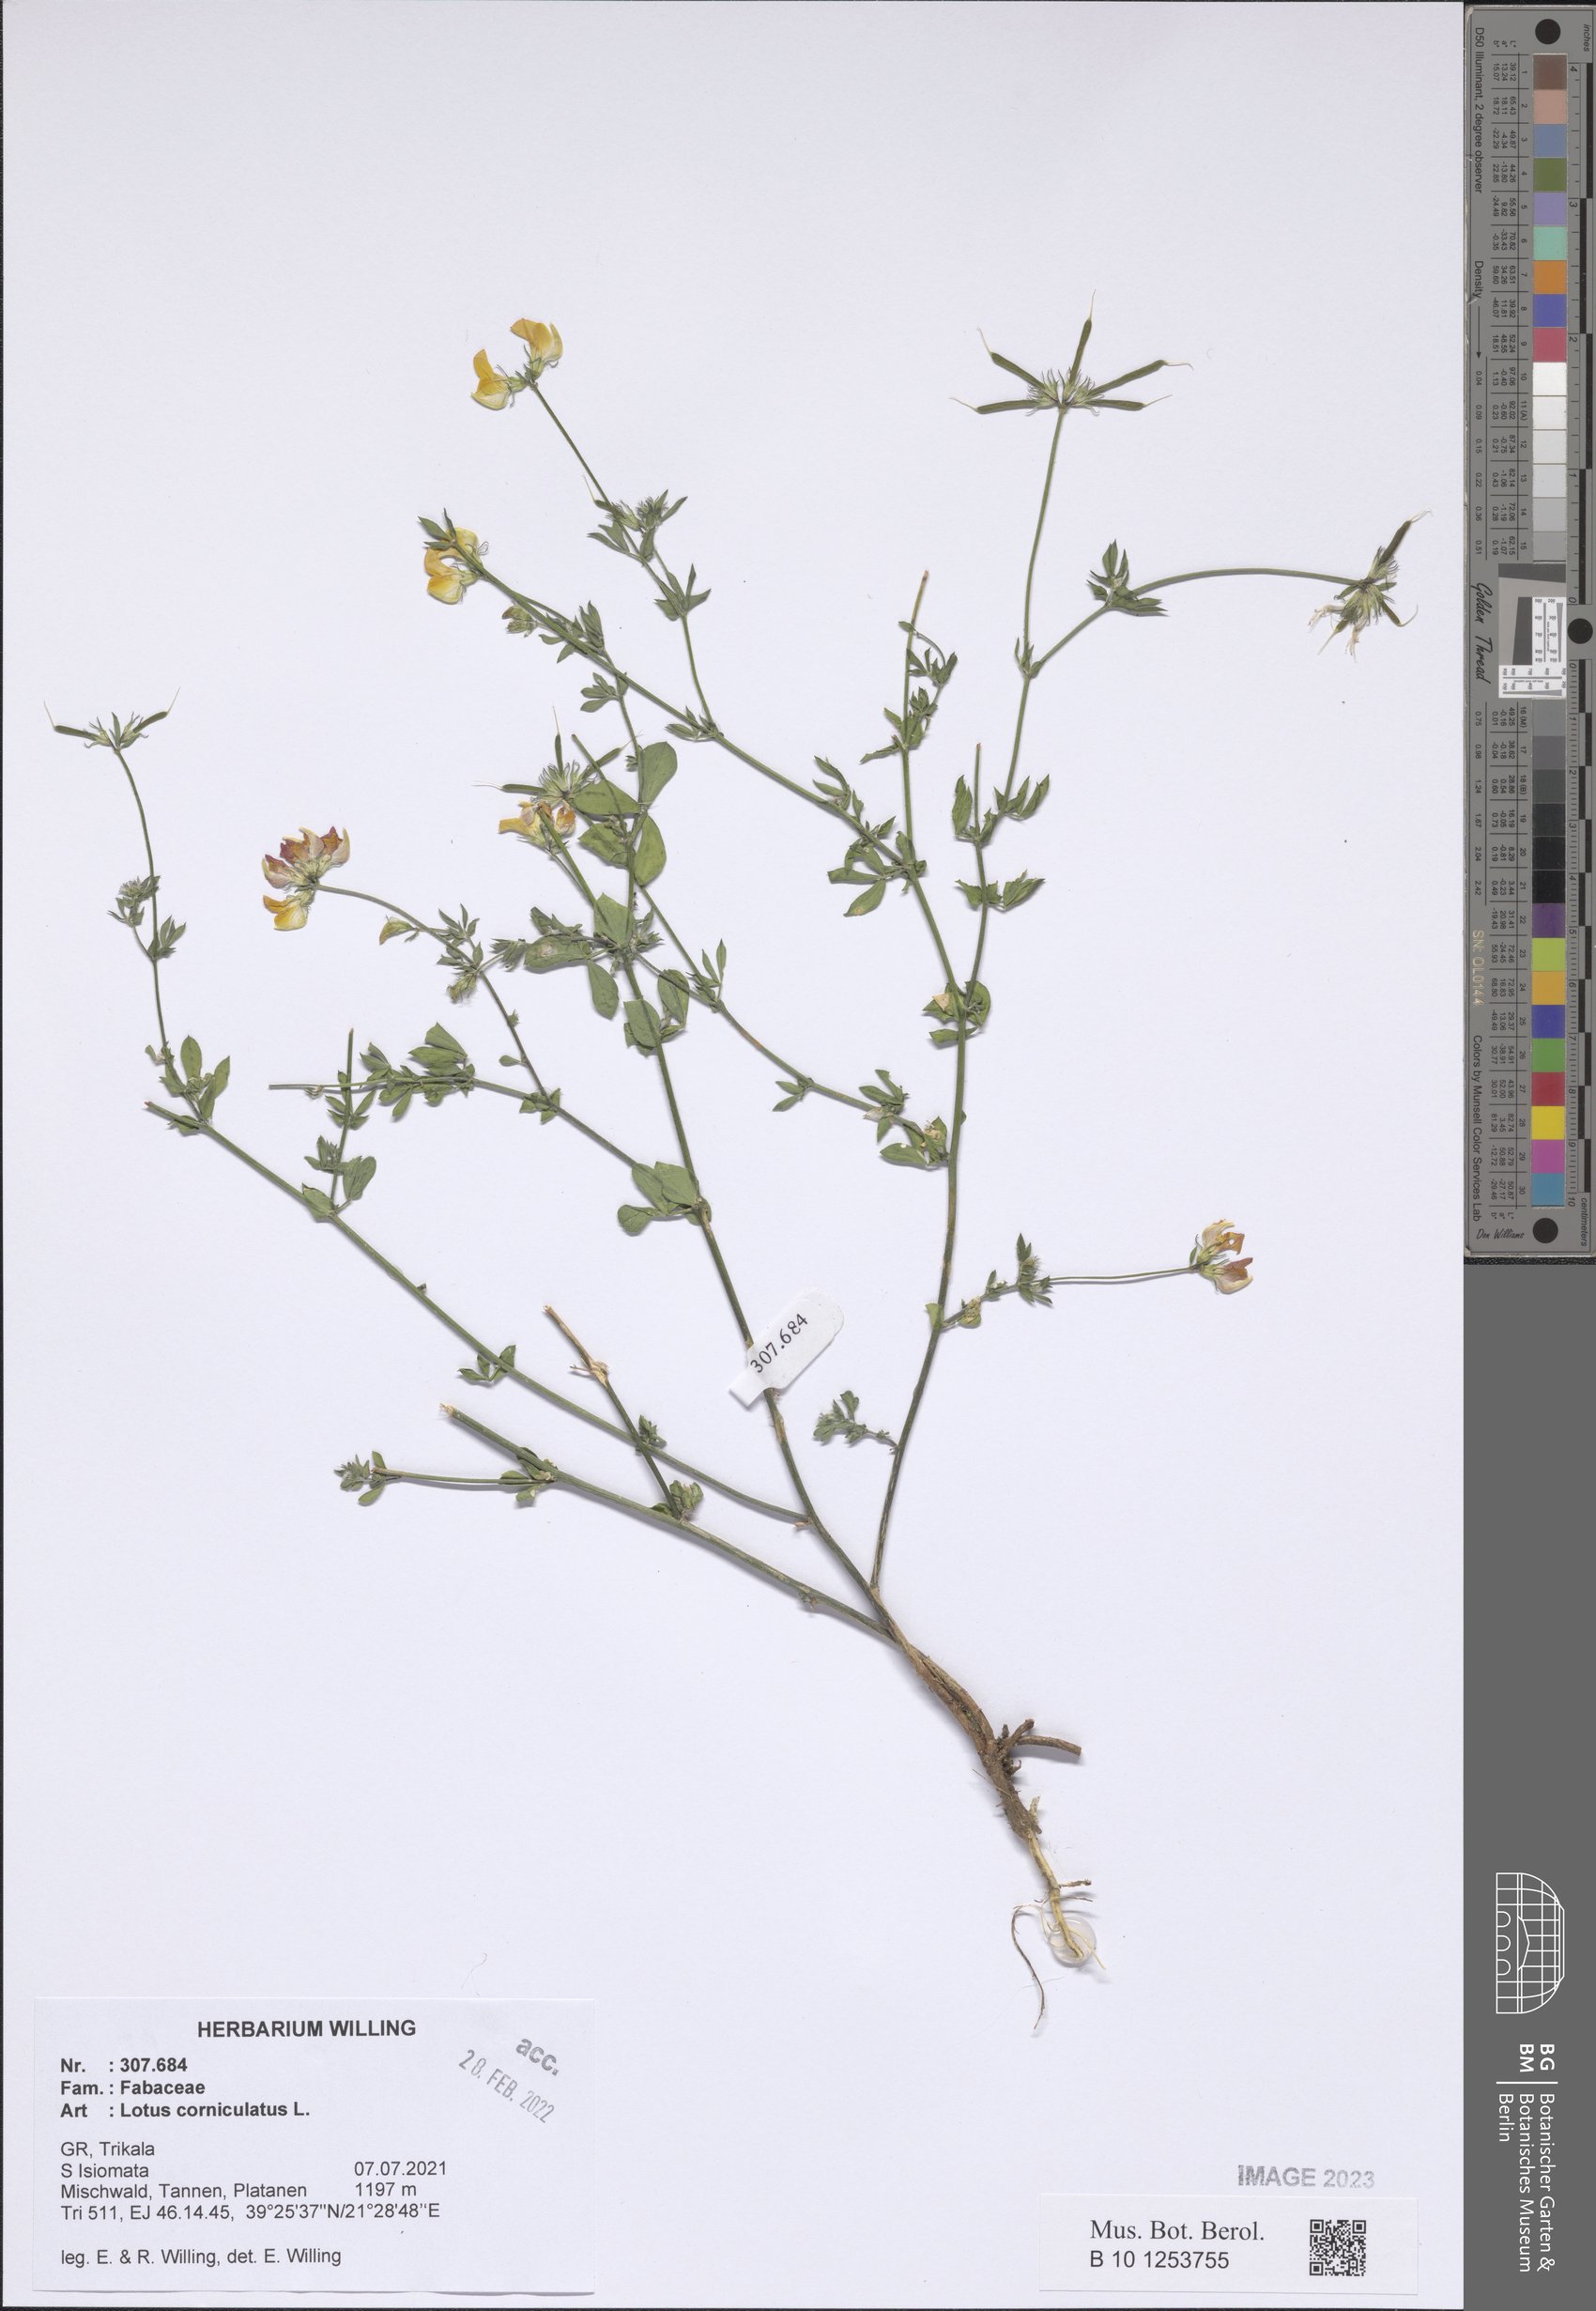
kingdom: Plantae
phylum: Tracheophyta
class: Magnoliopsida
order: Fabales
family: Fabaceae
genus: Lotus
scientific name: Lotus corniculatus
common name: Common bird's-foot-trefoil
